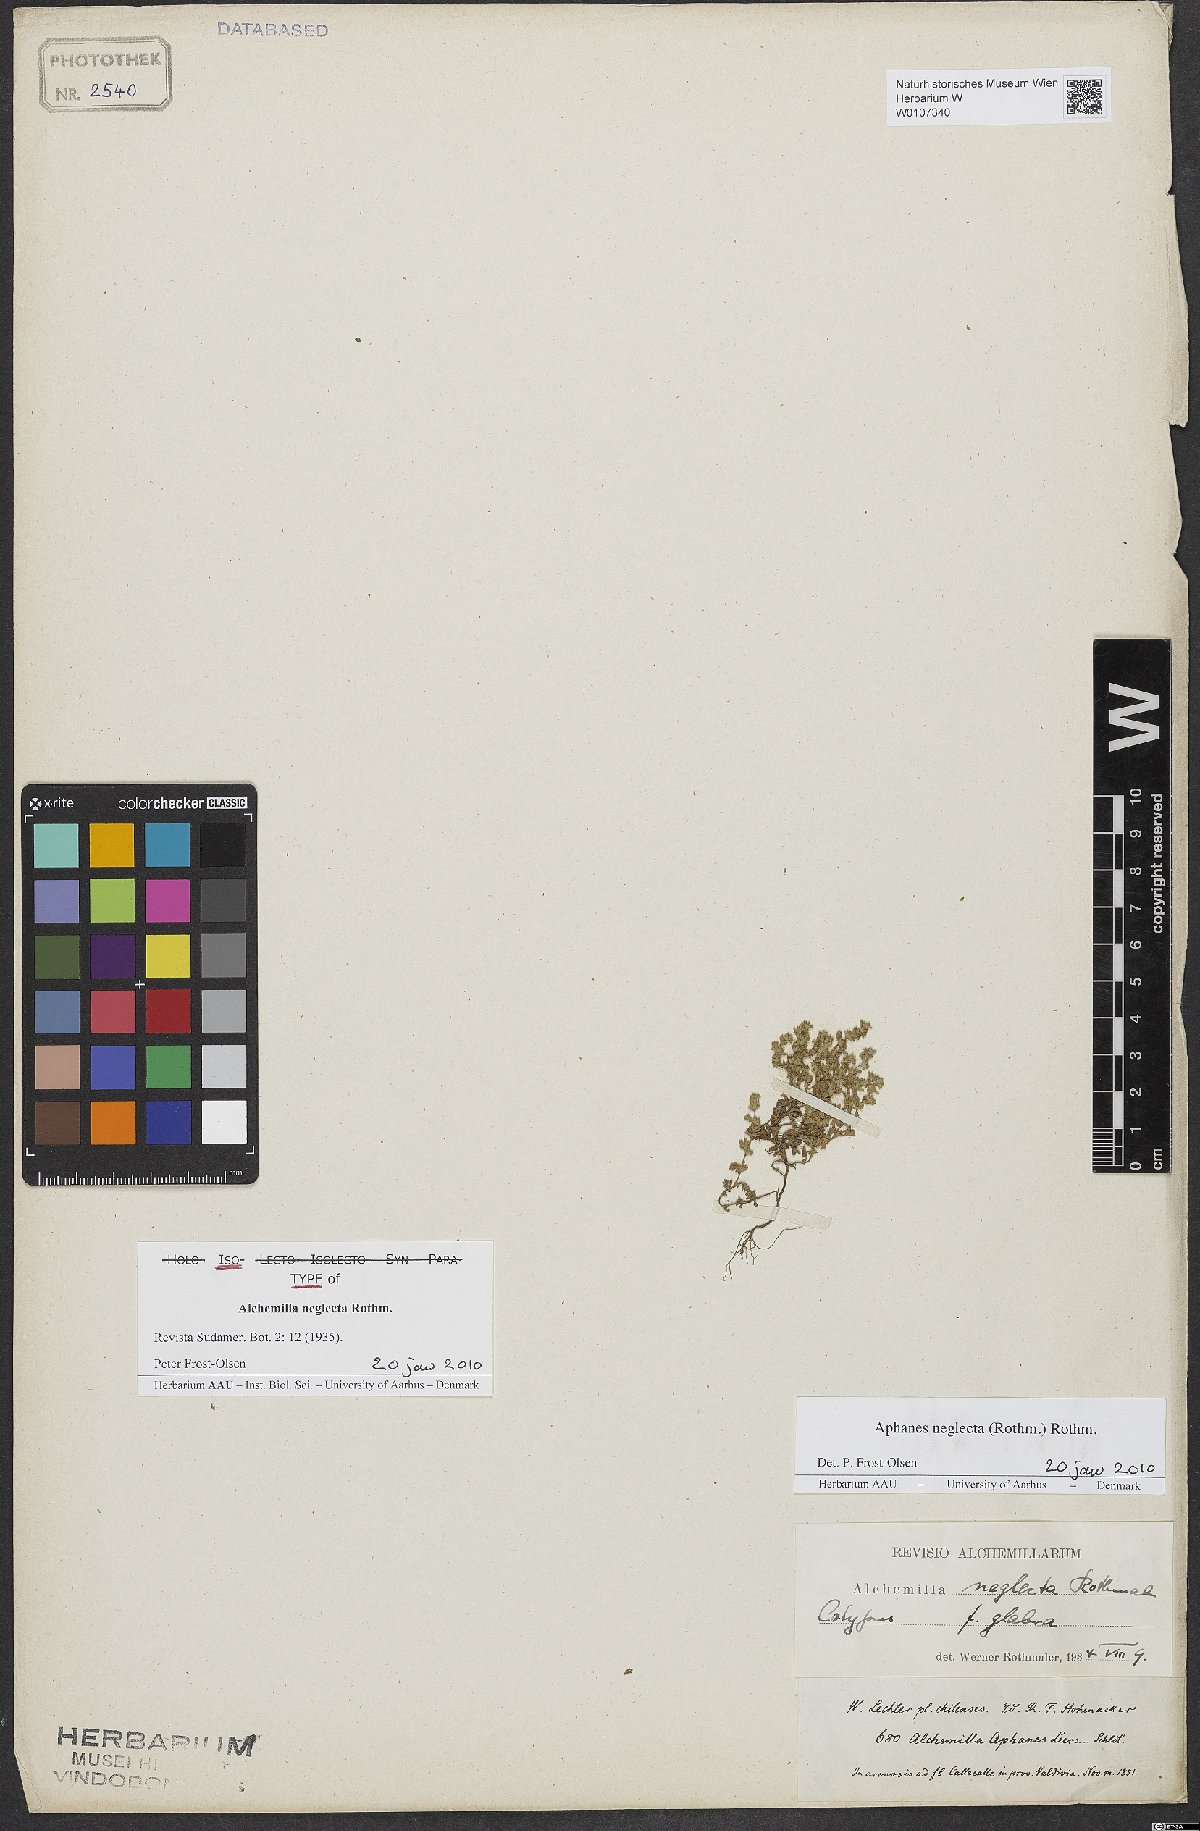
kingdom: Plantae
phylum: Tracheophyta
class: Magnoliopsida
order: Rosales
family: Rosaceae
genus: Aphanes
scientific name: Aphanes neglecta
